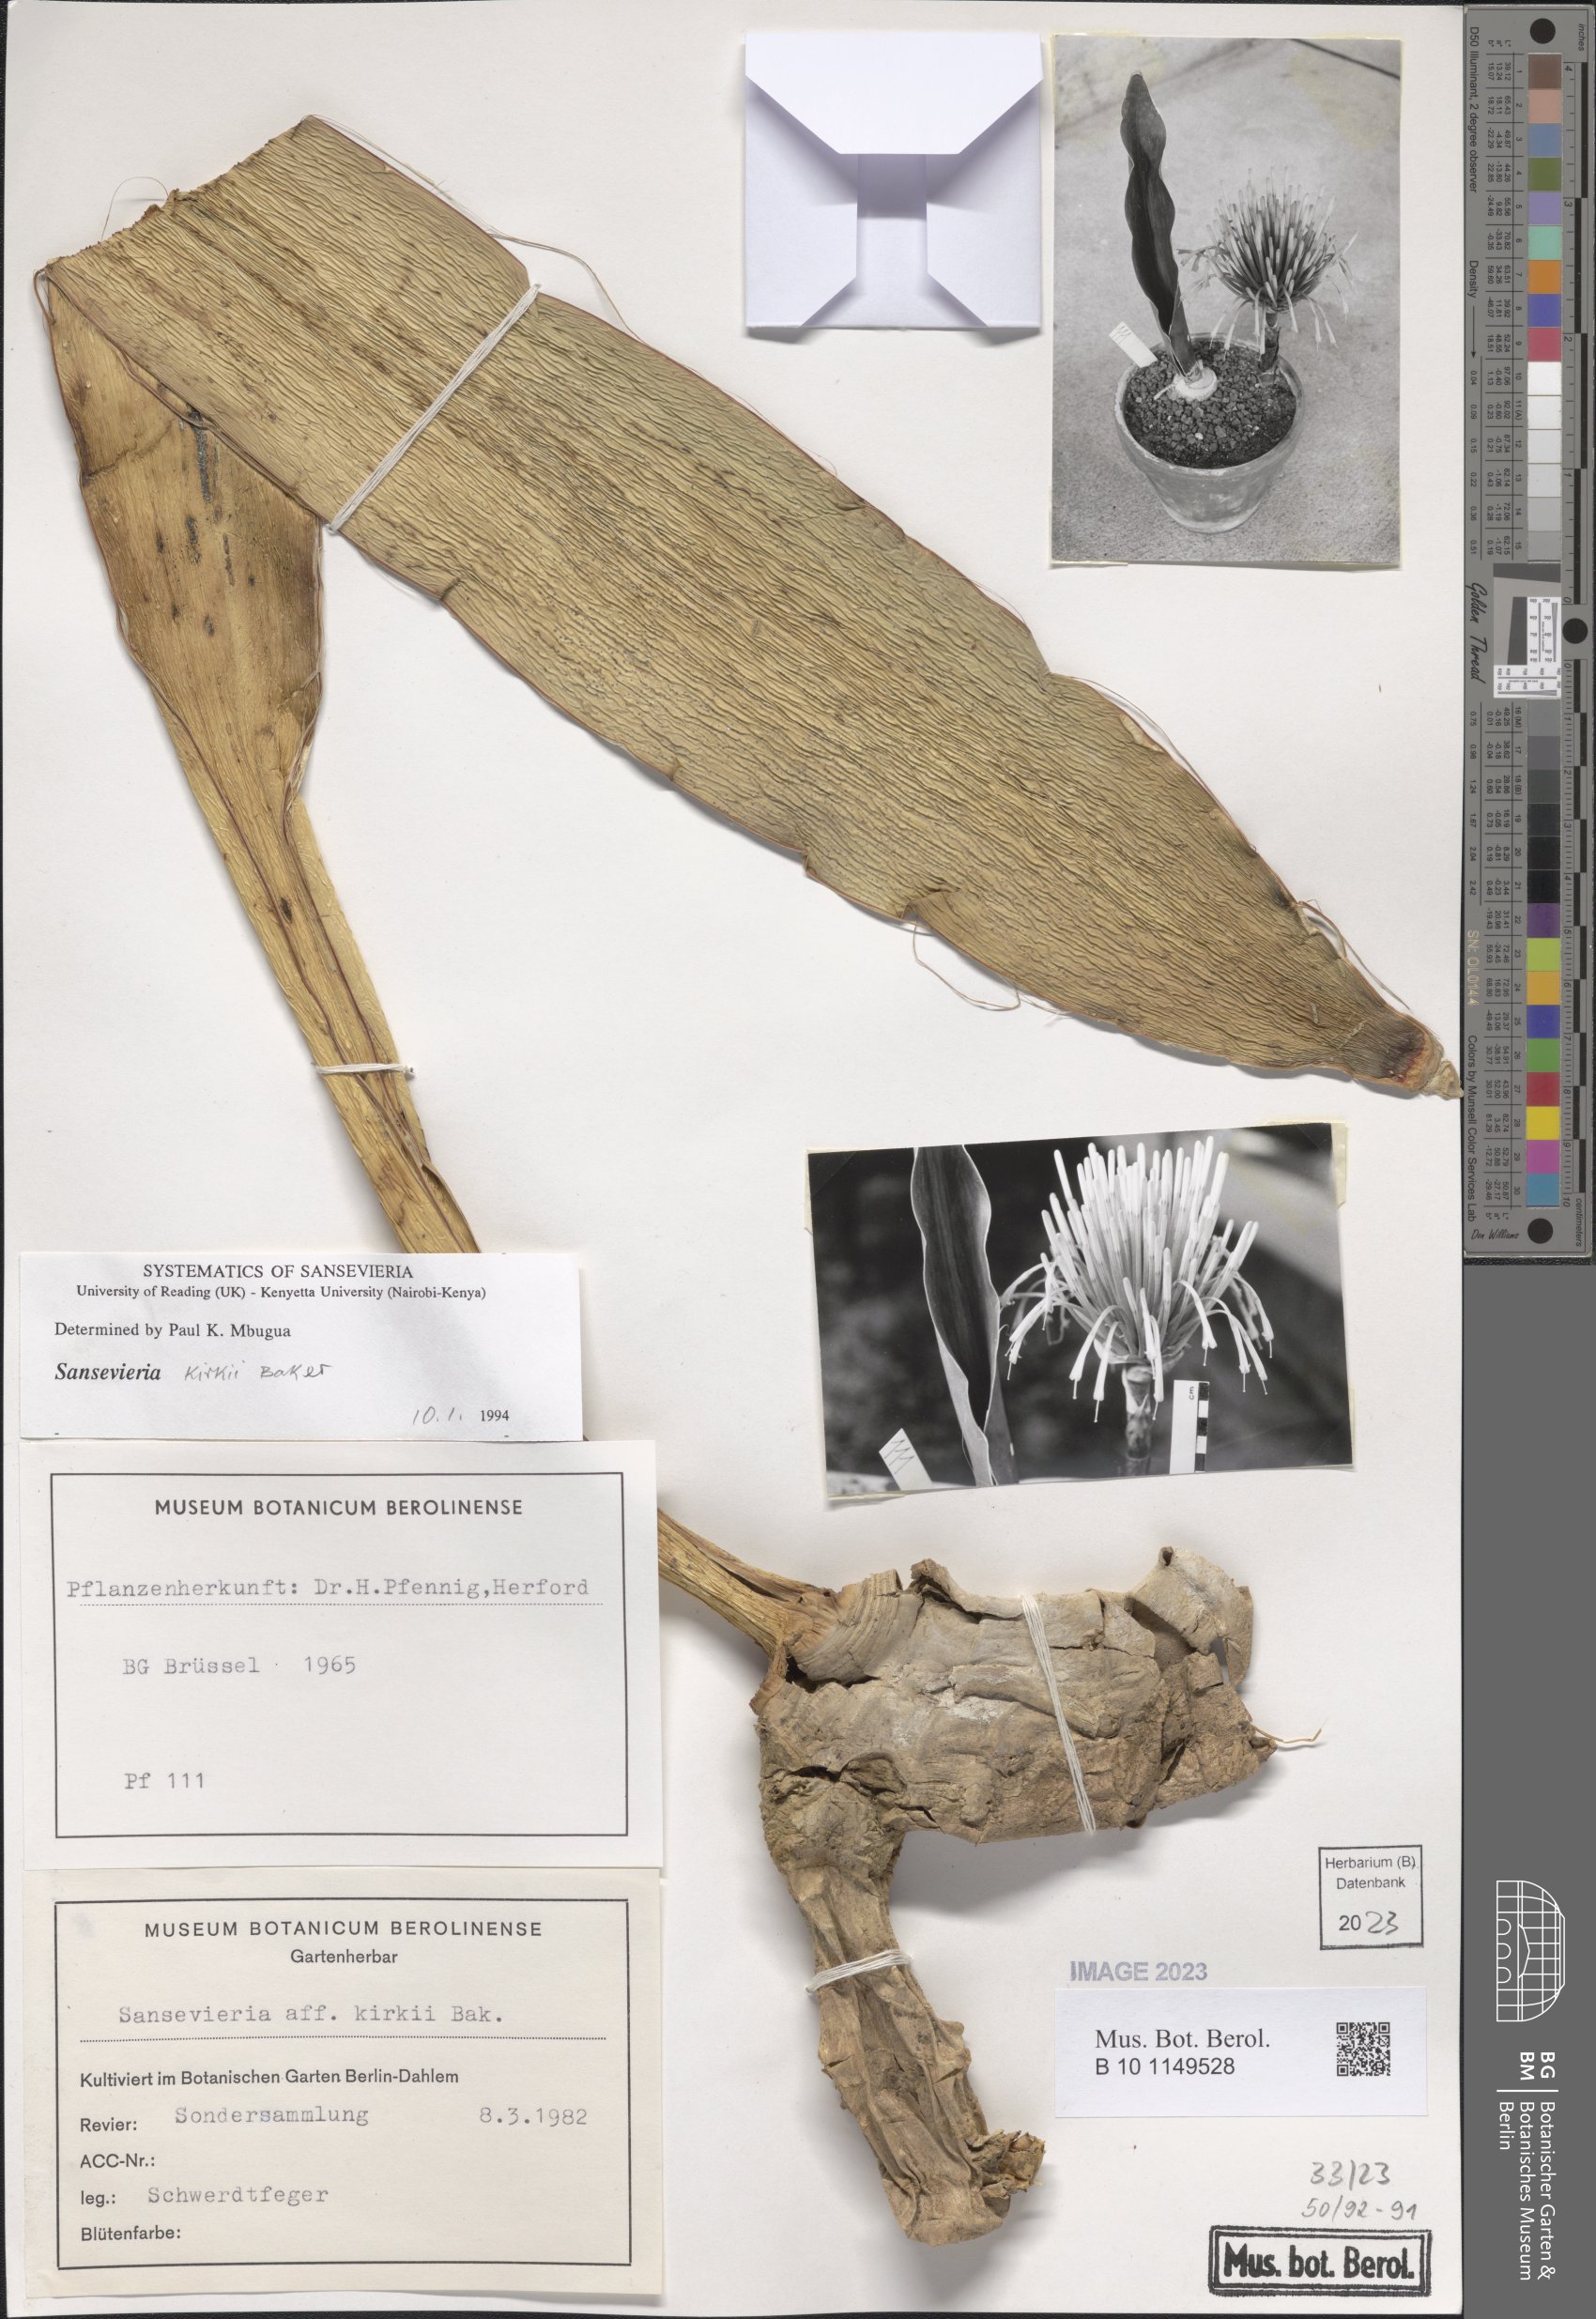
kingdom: Plantae
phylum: Tracheophyta
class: Liliopsida
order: Asparagales
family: Asparagaceae
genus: Dracaena
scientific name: Dracaena pethera
